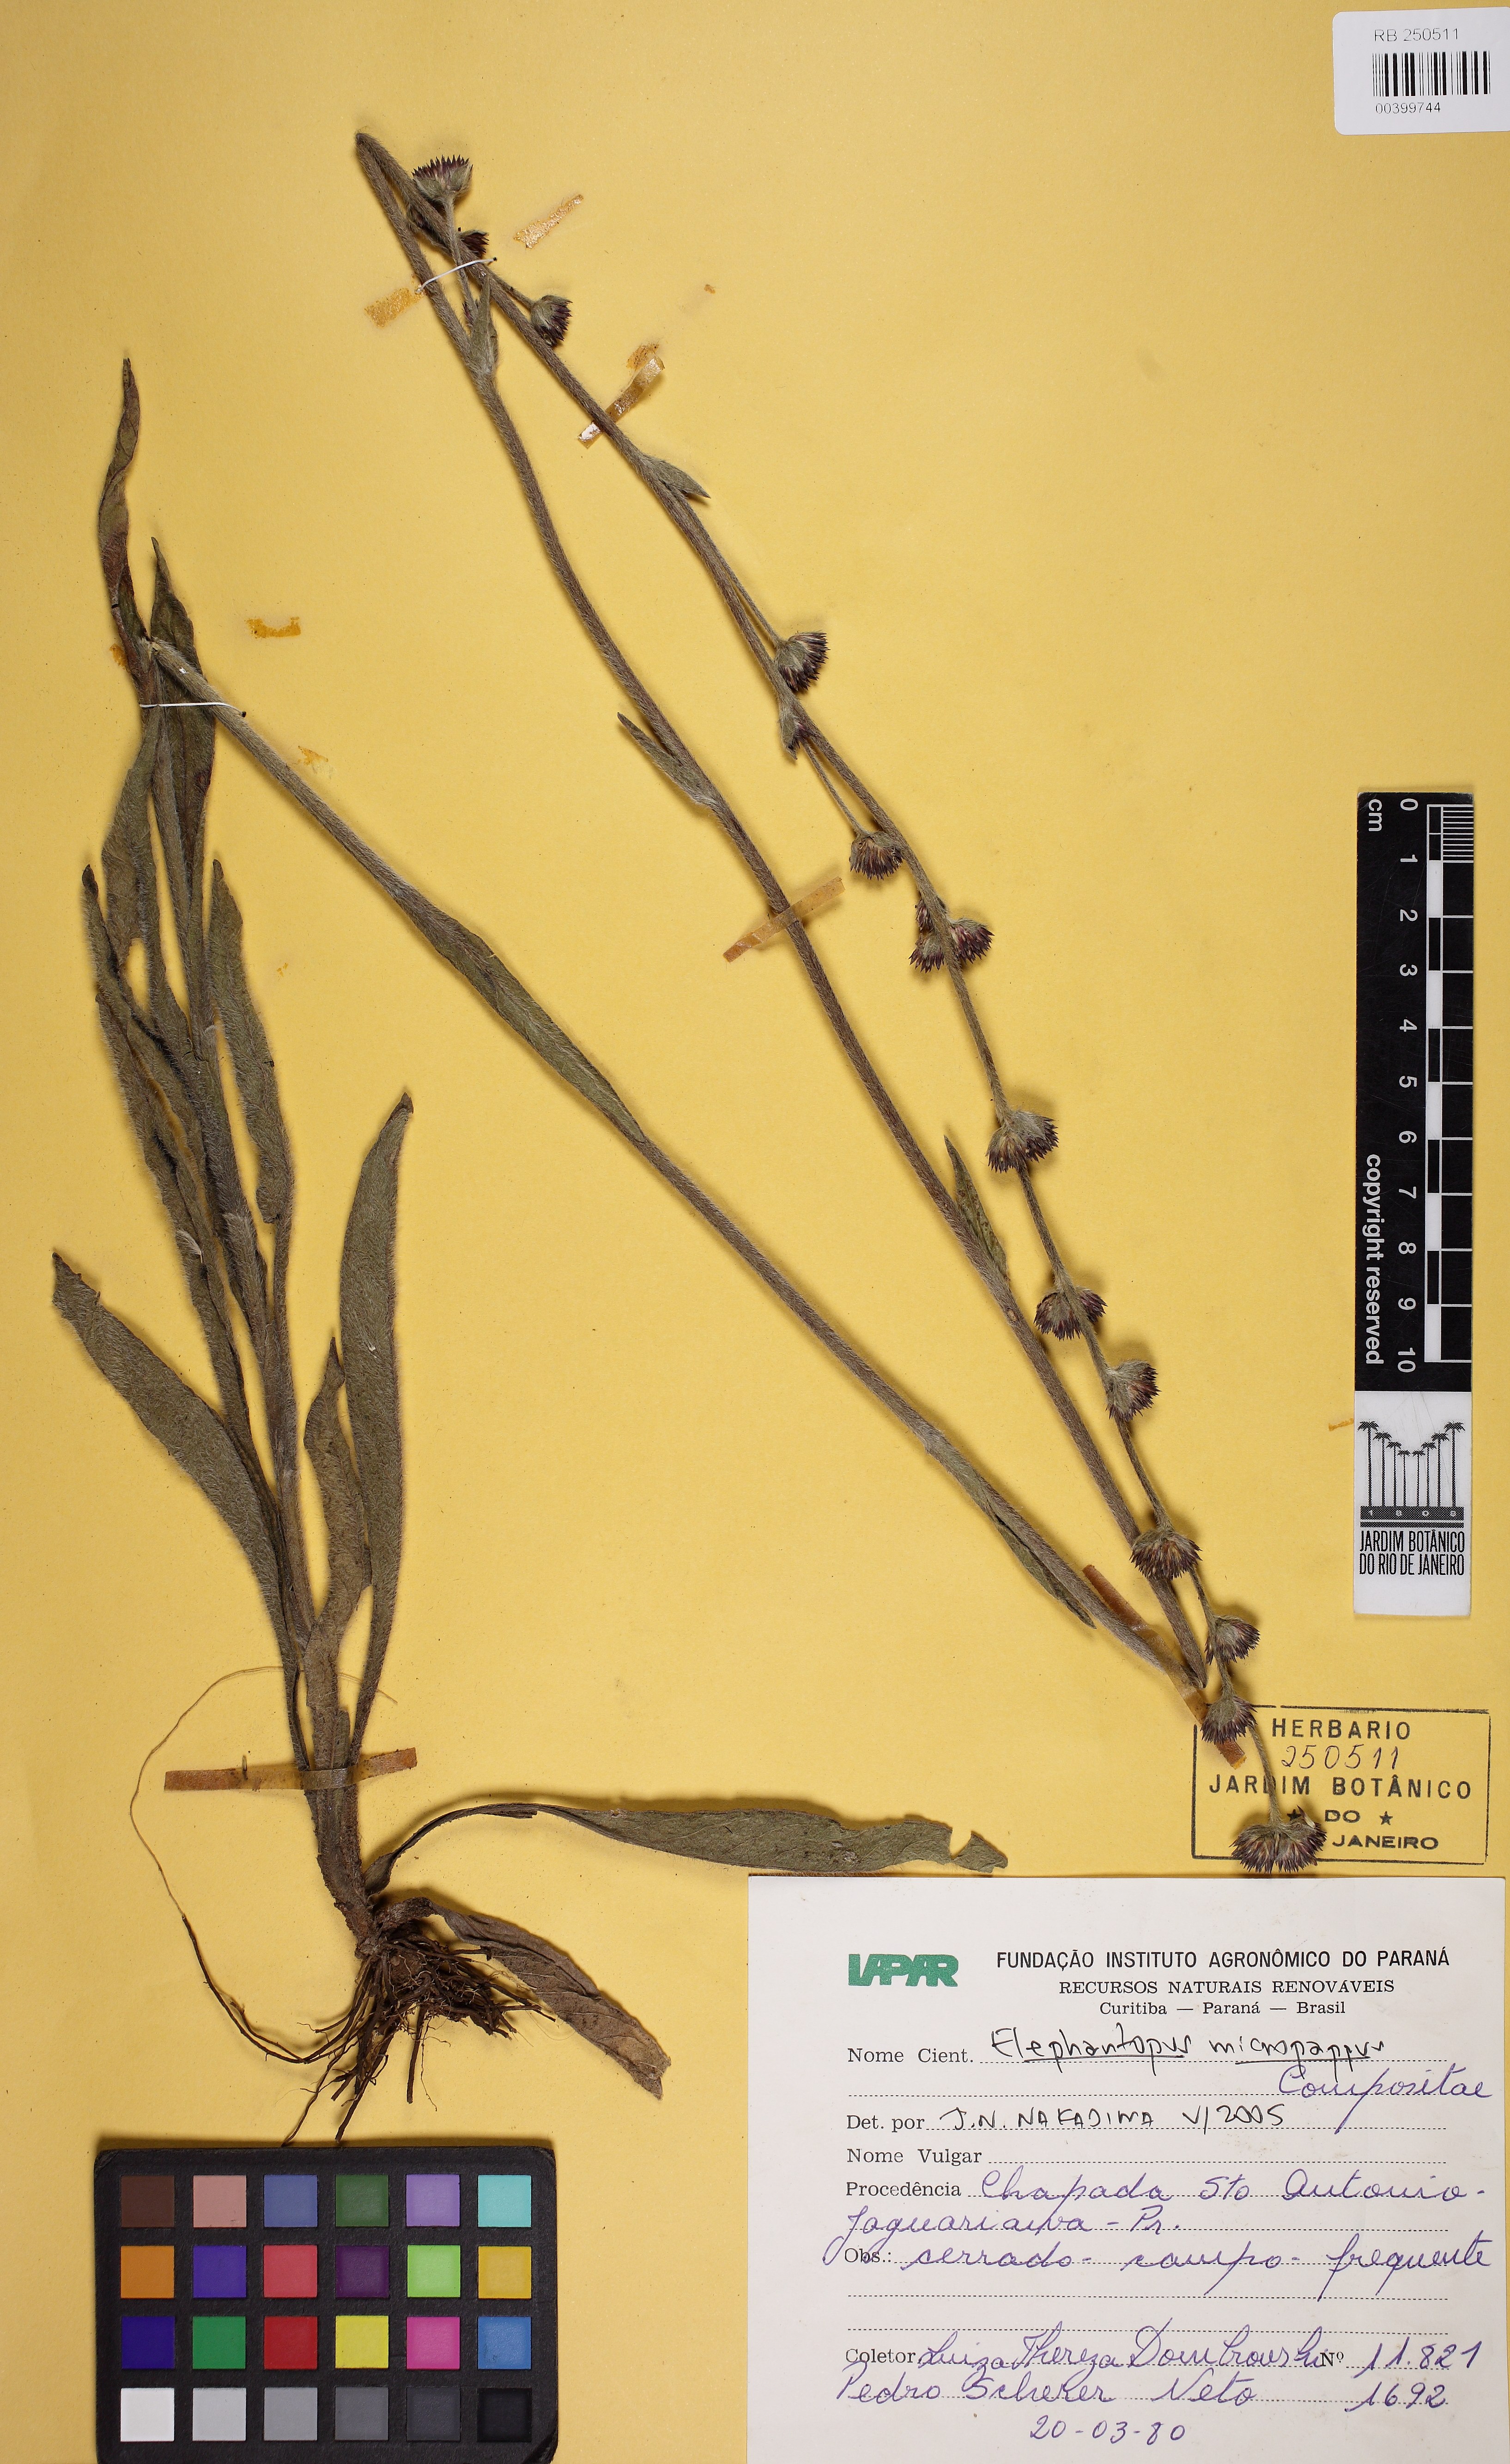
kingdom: Plantae
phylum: Tracheophyta
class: Magnoliopsida
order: Asterales
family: Asteraceae
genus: Elephantopus
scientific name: Elephantopus micropappus
